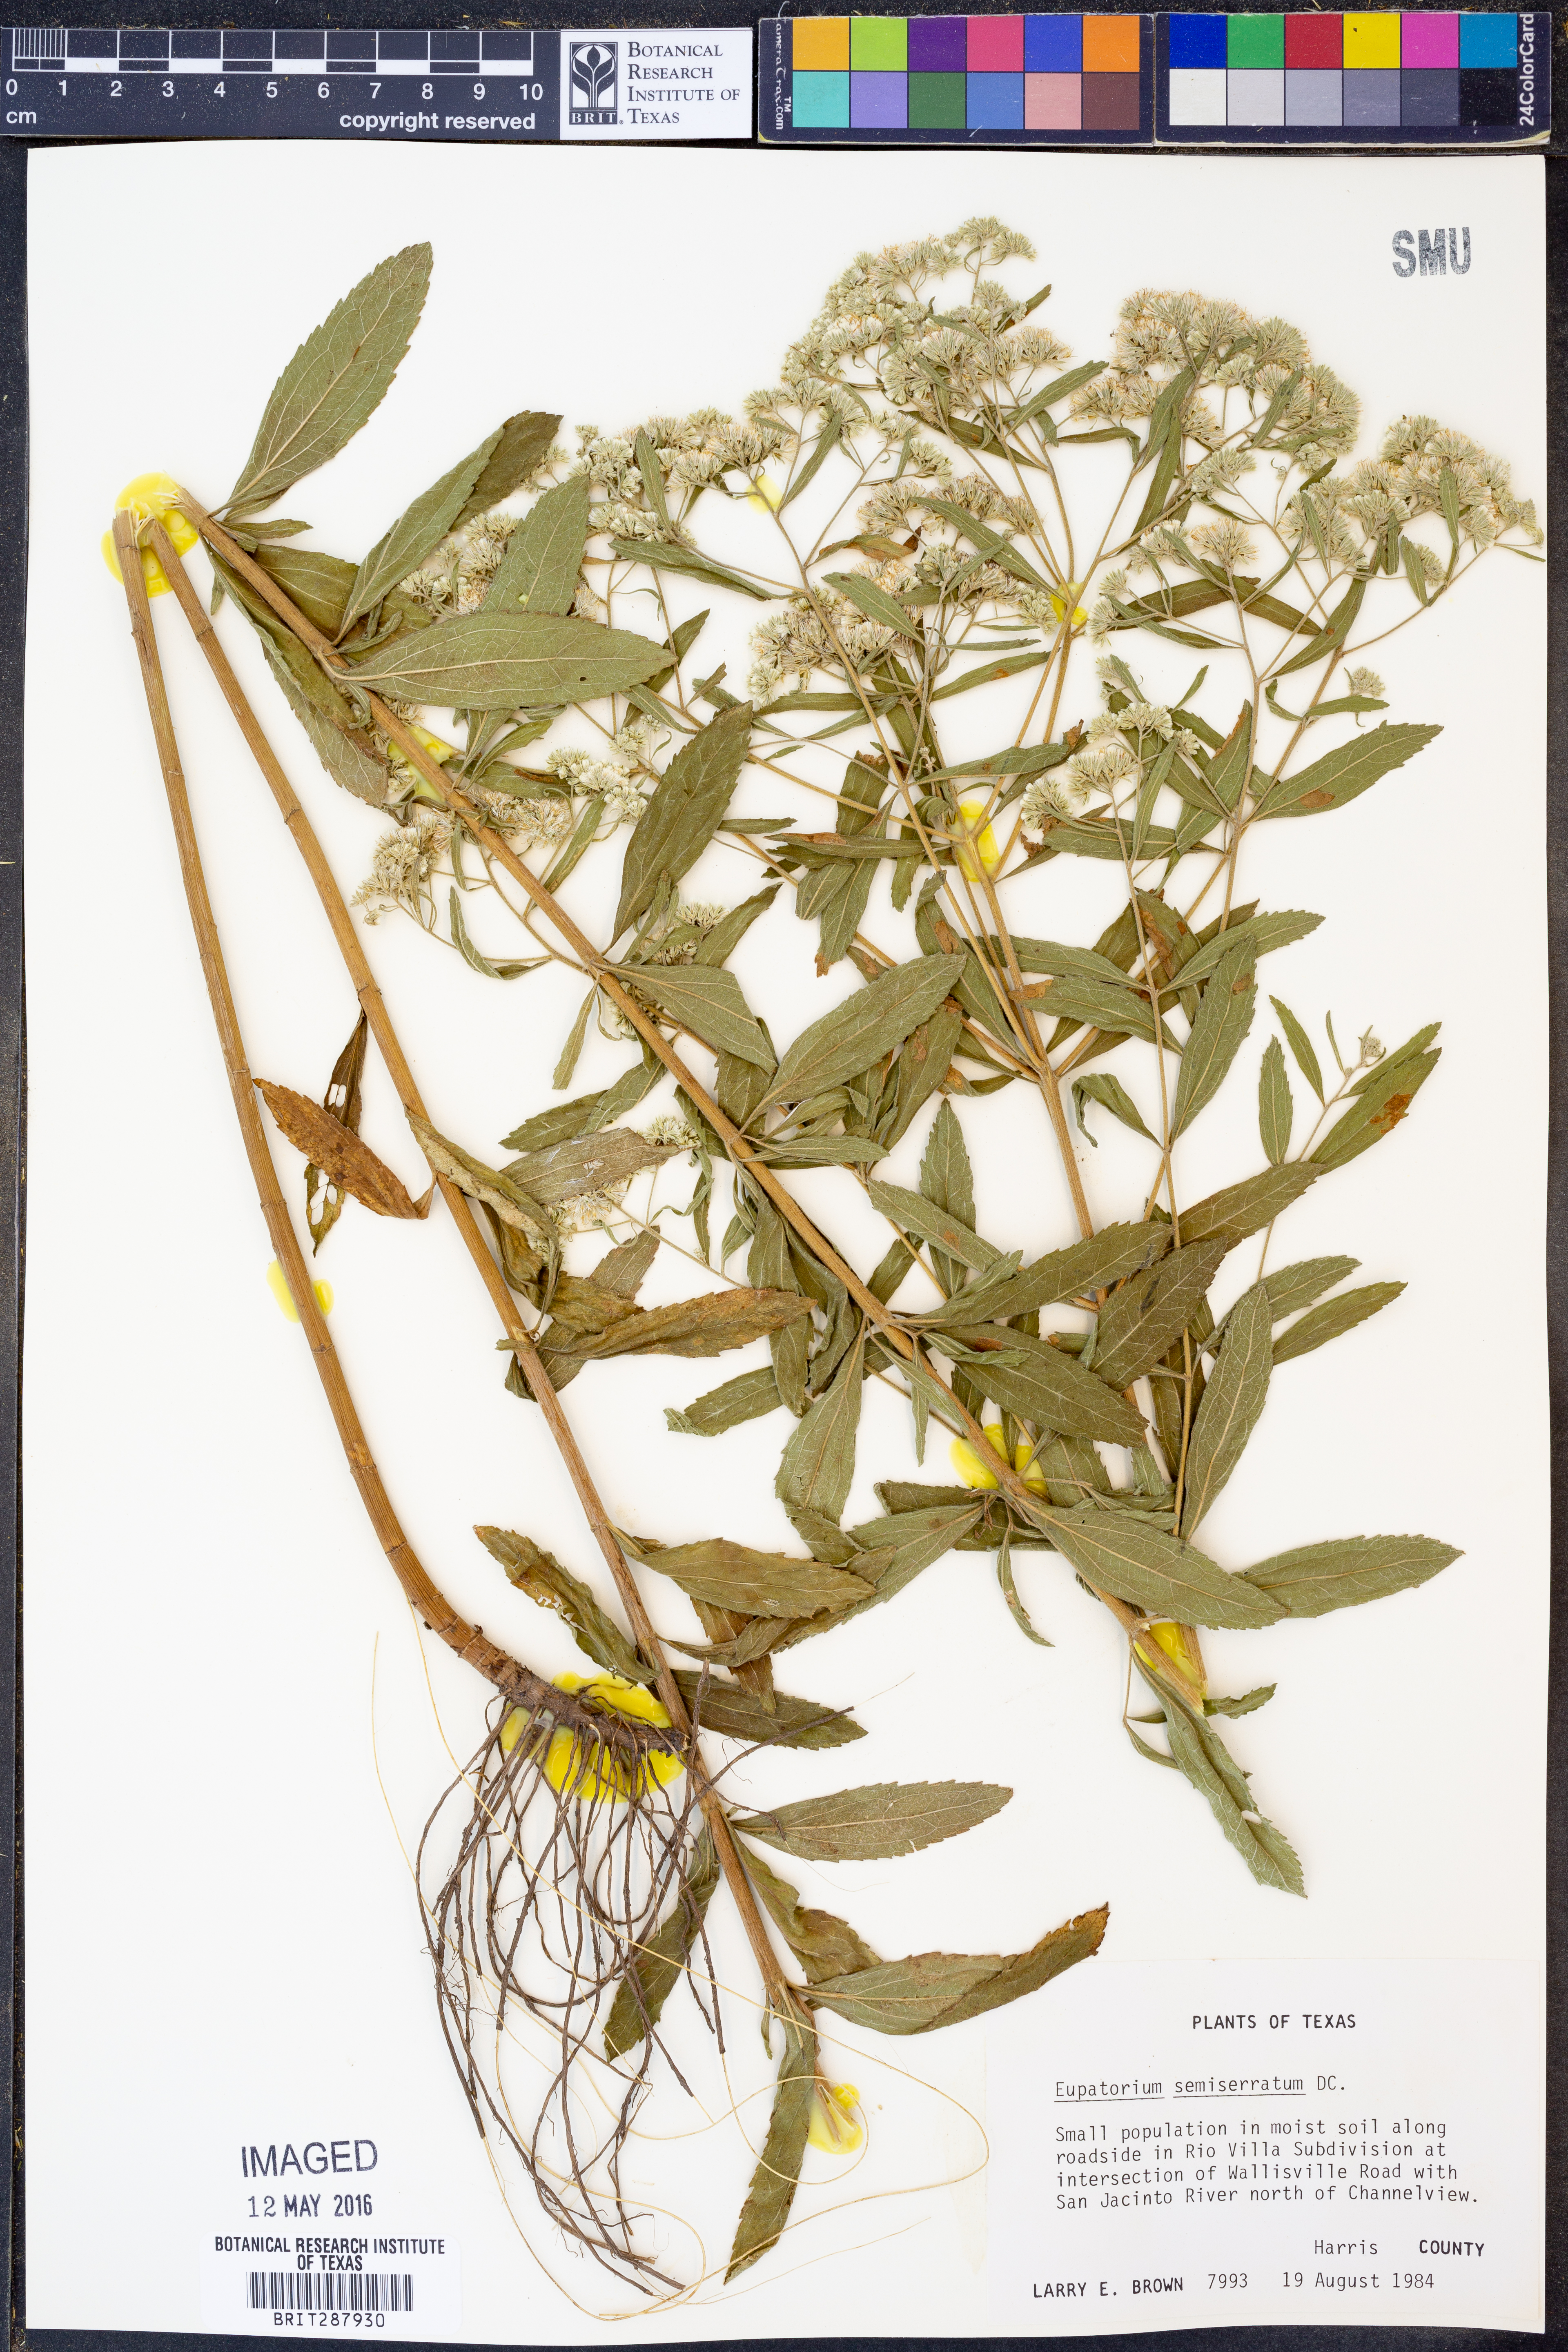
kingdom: Plantae
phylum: Tracheophyta
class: Magnoliopsida
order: Asterales
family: Asteraceae
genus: Eupatorium
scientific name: Eupatorium semiserratum
